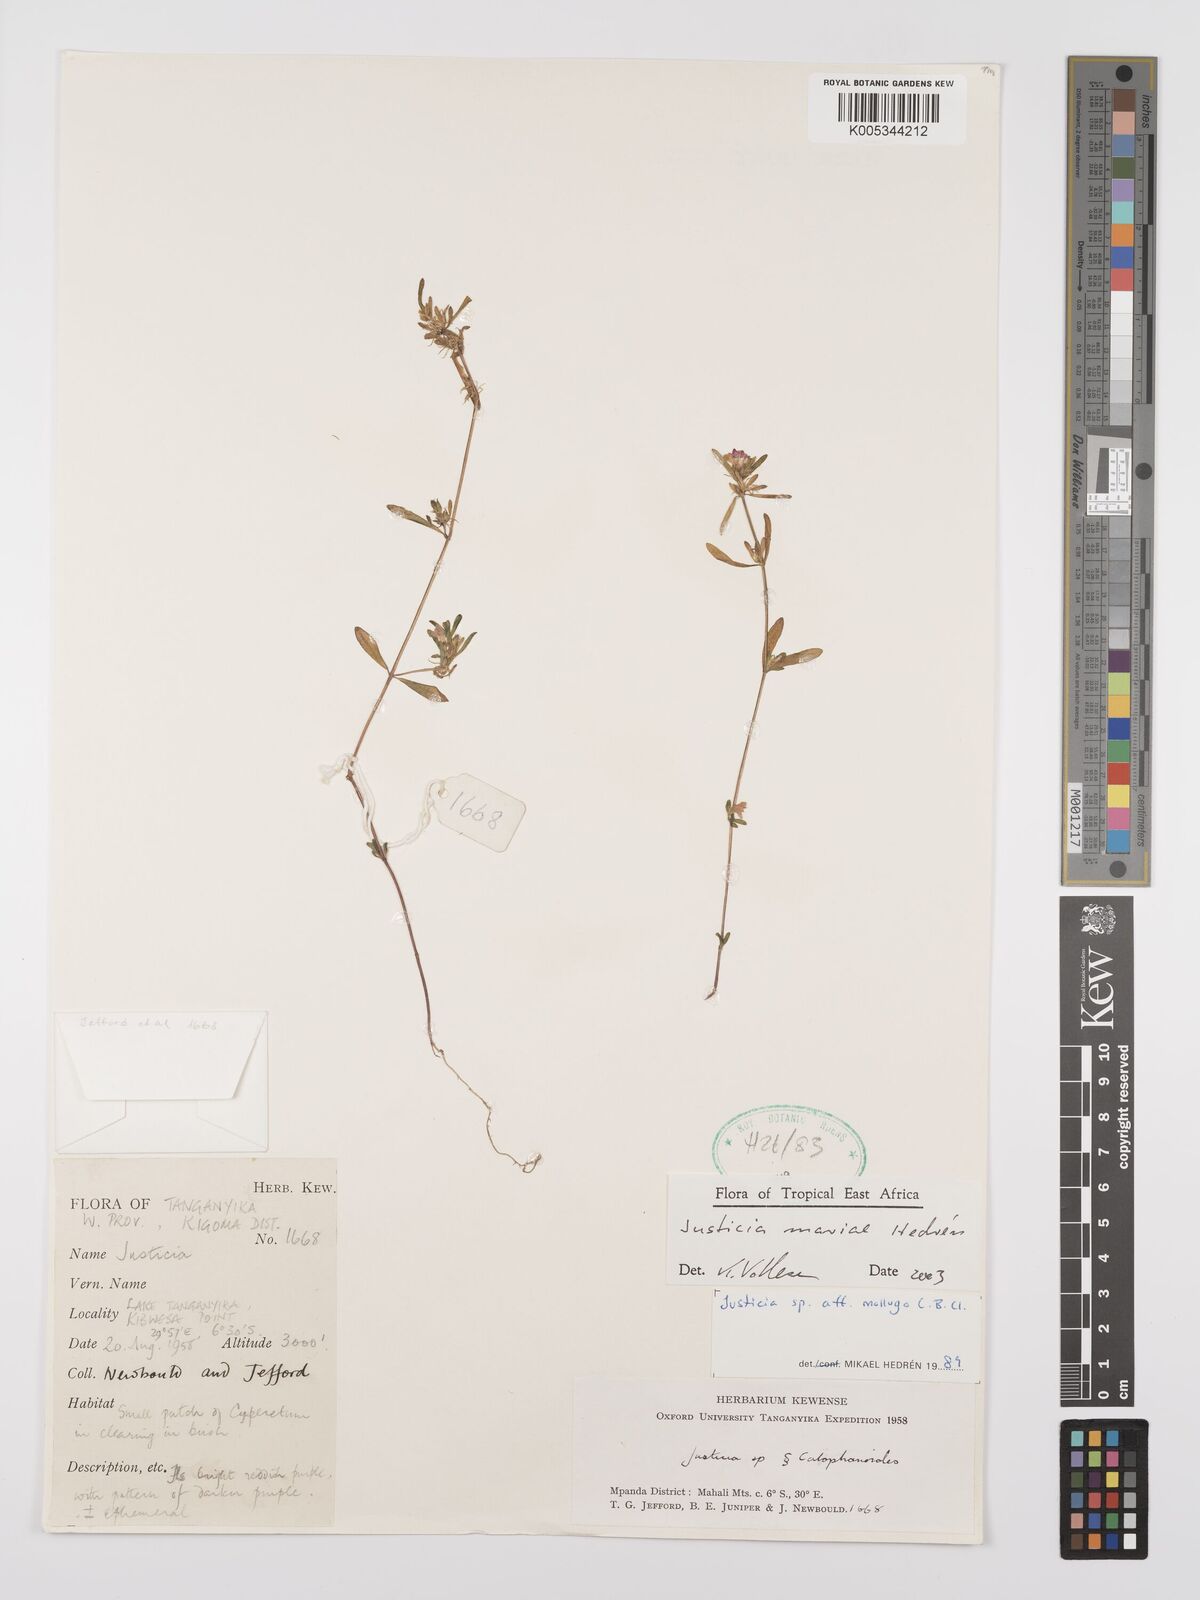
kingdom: Plantae
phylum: Tracheophyta
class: Magnoliopsida
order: Lamiales
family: Acanthaceae
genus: Justicia
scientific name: Justicia mariae
